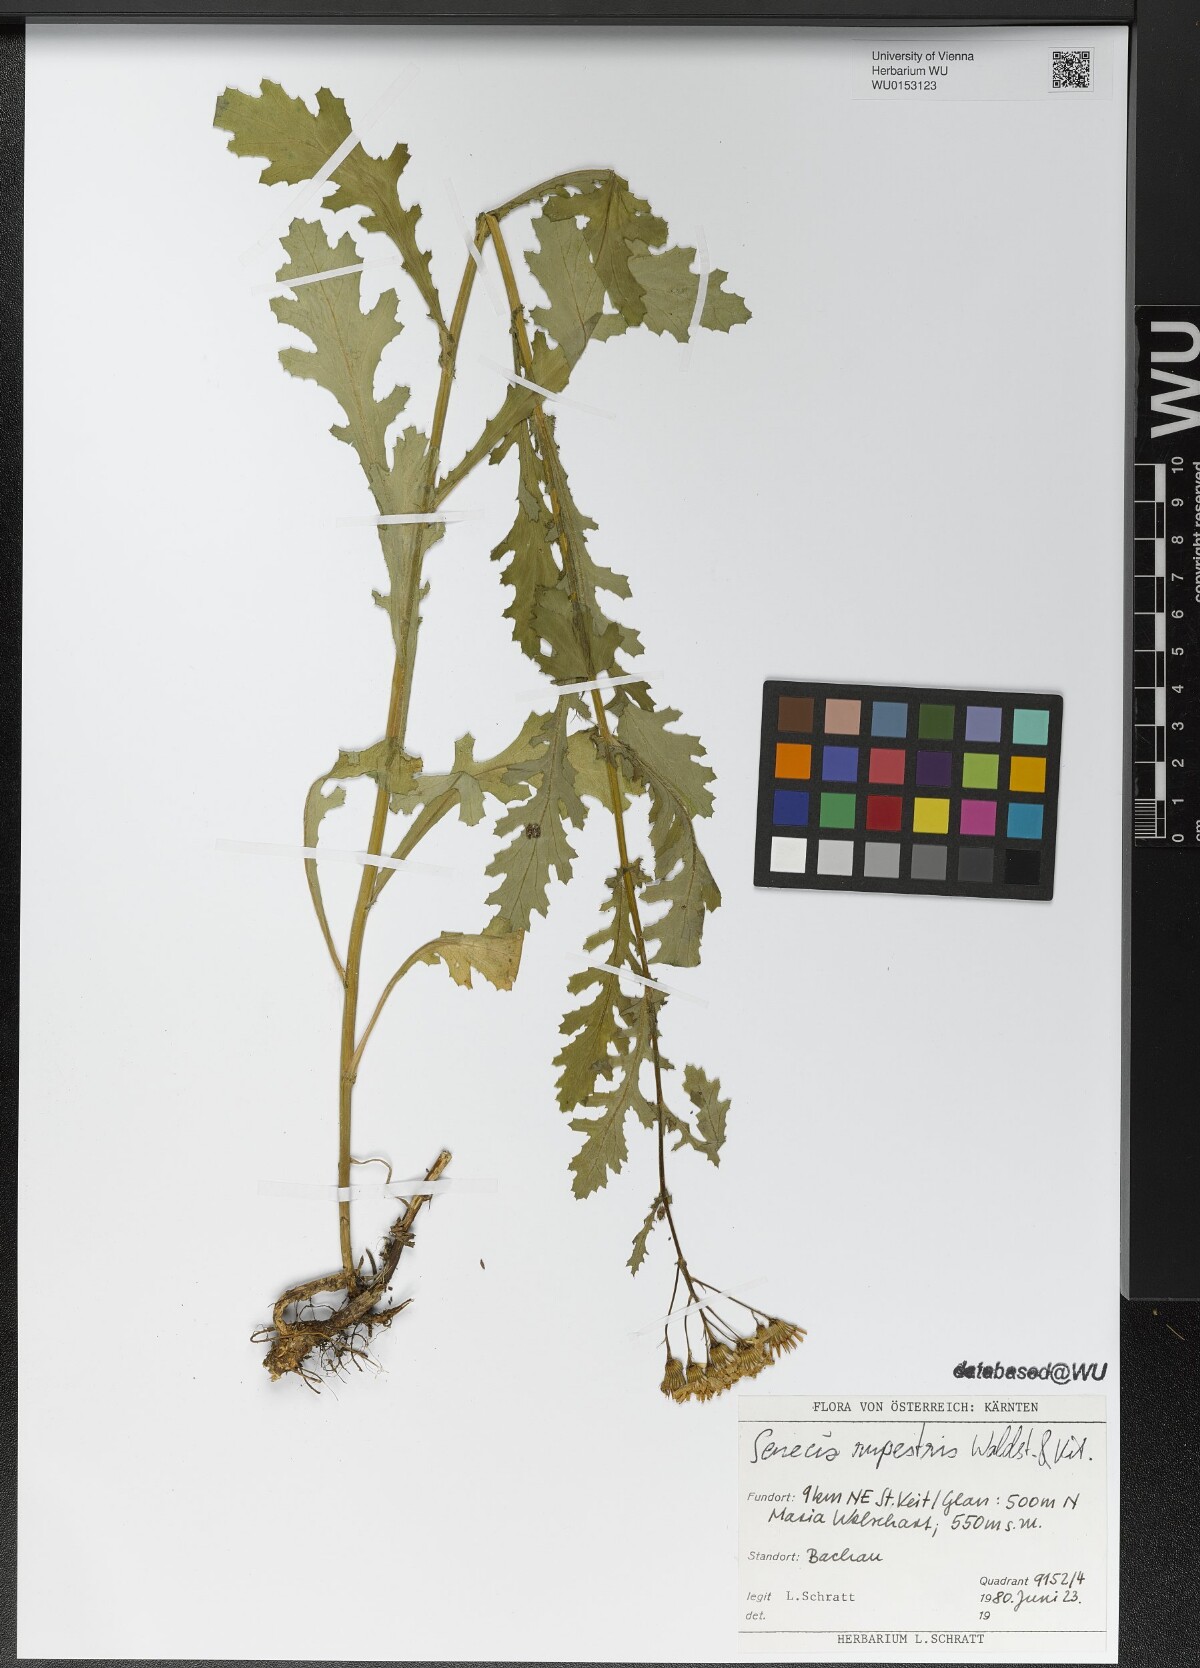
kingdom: Plantae
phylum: Tracheophyta
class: Magnoliopsida
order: Asterales
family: Asteraceae
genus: Senecio
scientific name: Senecio rupestris
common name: Rock ragwort
